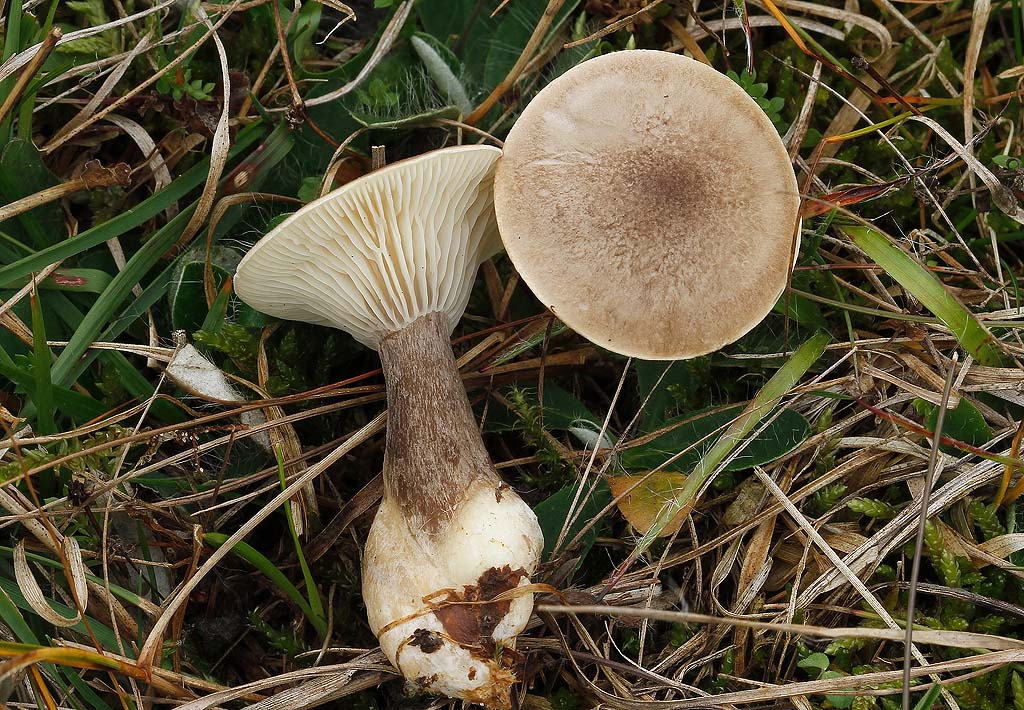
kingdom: Fungi
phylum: Basidiomycota
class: Agaricomycetes
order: Agaricales
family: Hygrophoraceae
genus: Ampulloclitocybe
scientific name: Ampulloclitocybe clavipes
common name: køllefod
